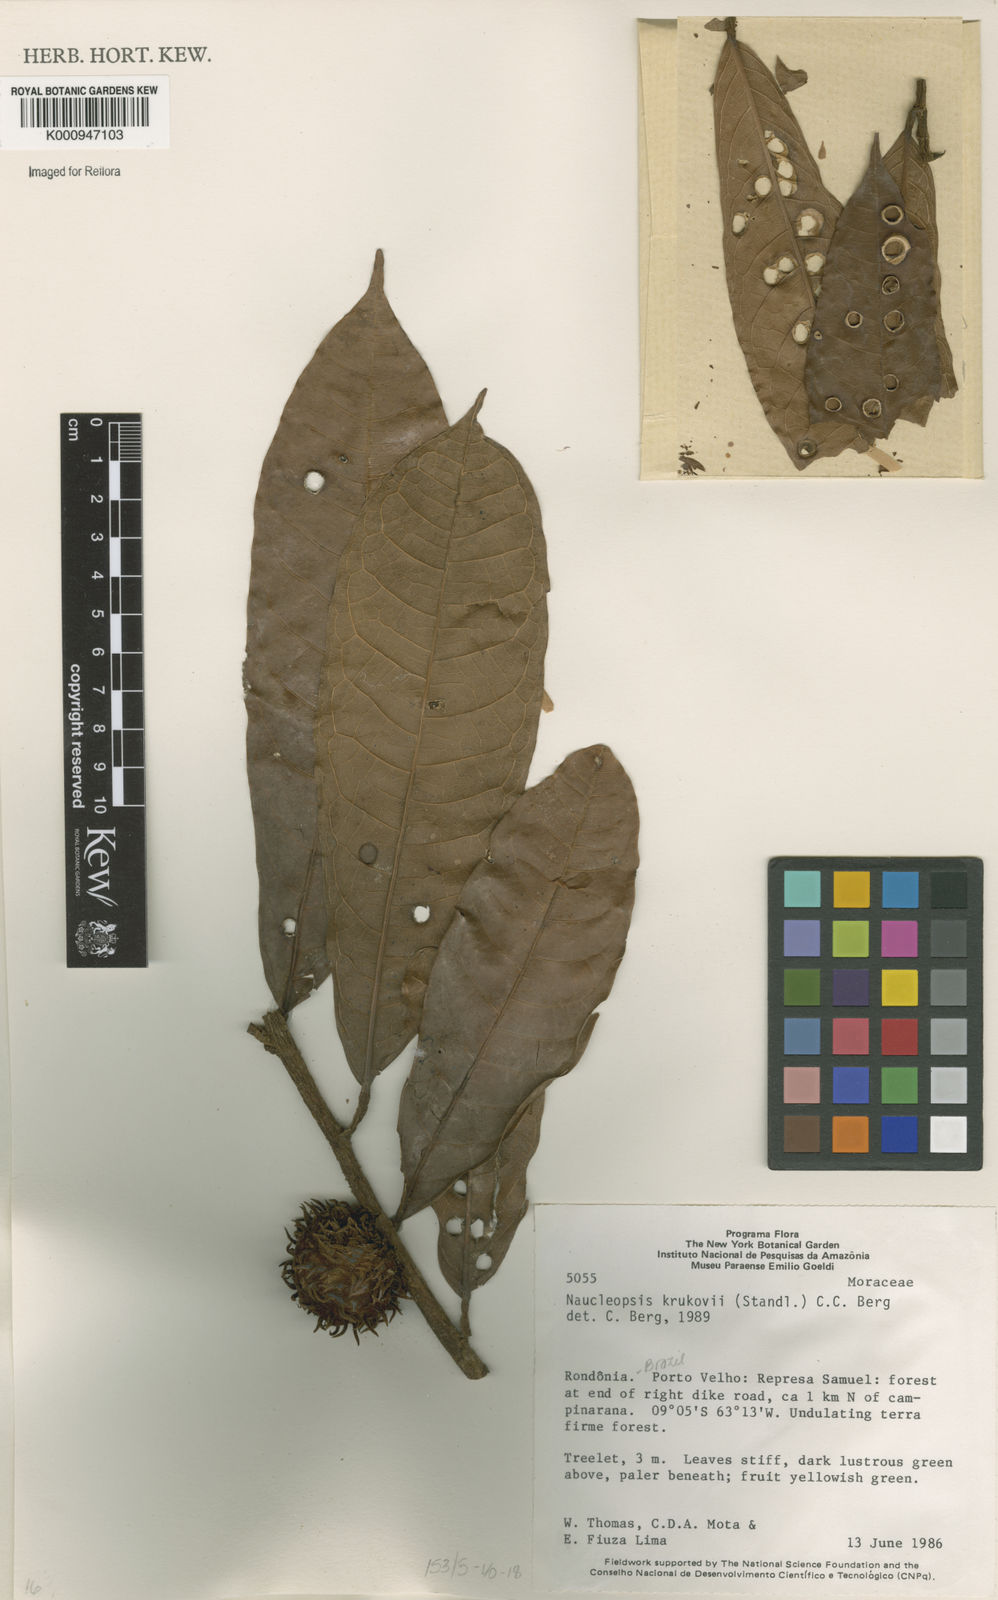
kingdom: Plantae
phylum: Tracheophyta
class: Magnoliopsida
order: Rosales
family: Moraceae
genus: Naucleopsis
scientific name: Naucleopsis krukovii
